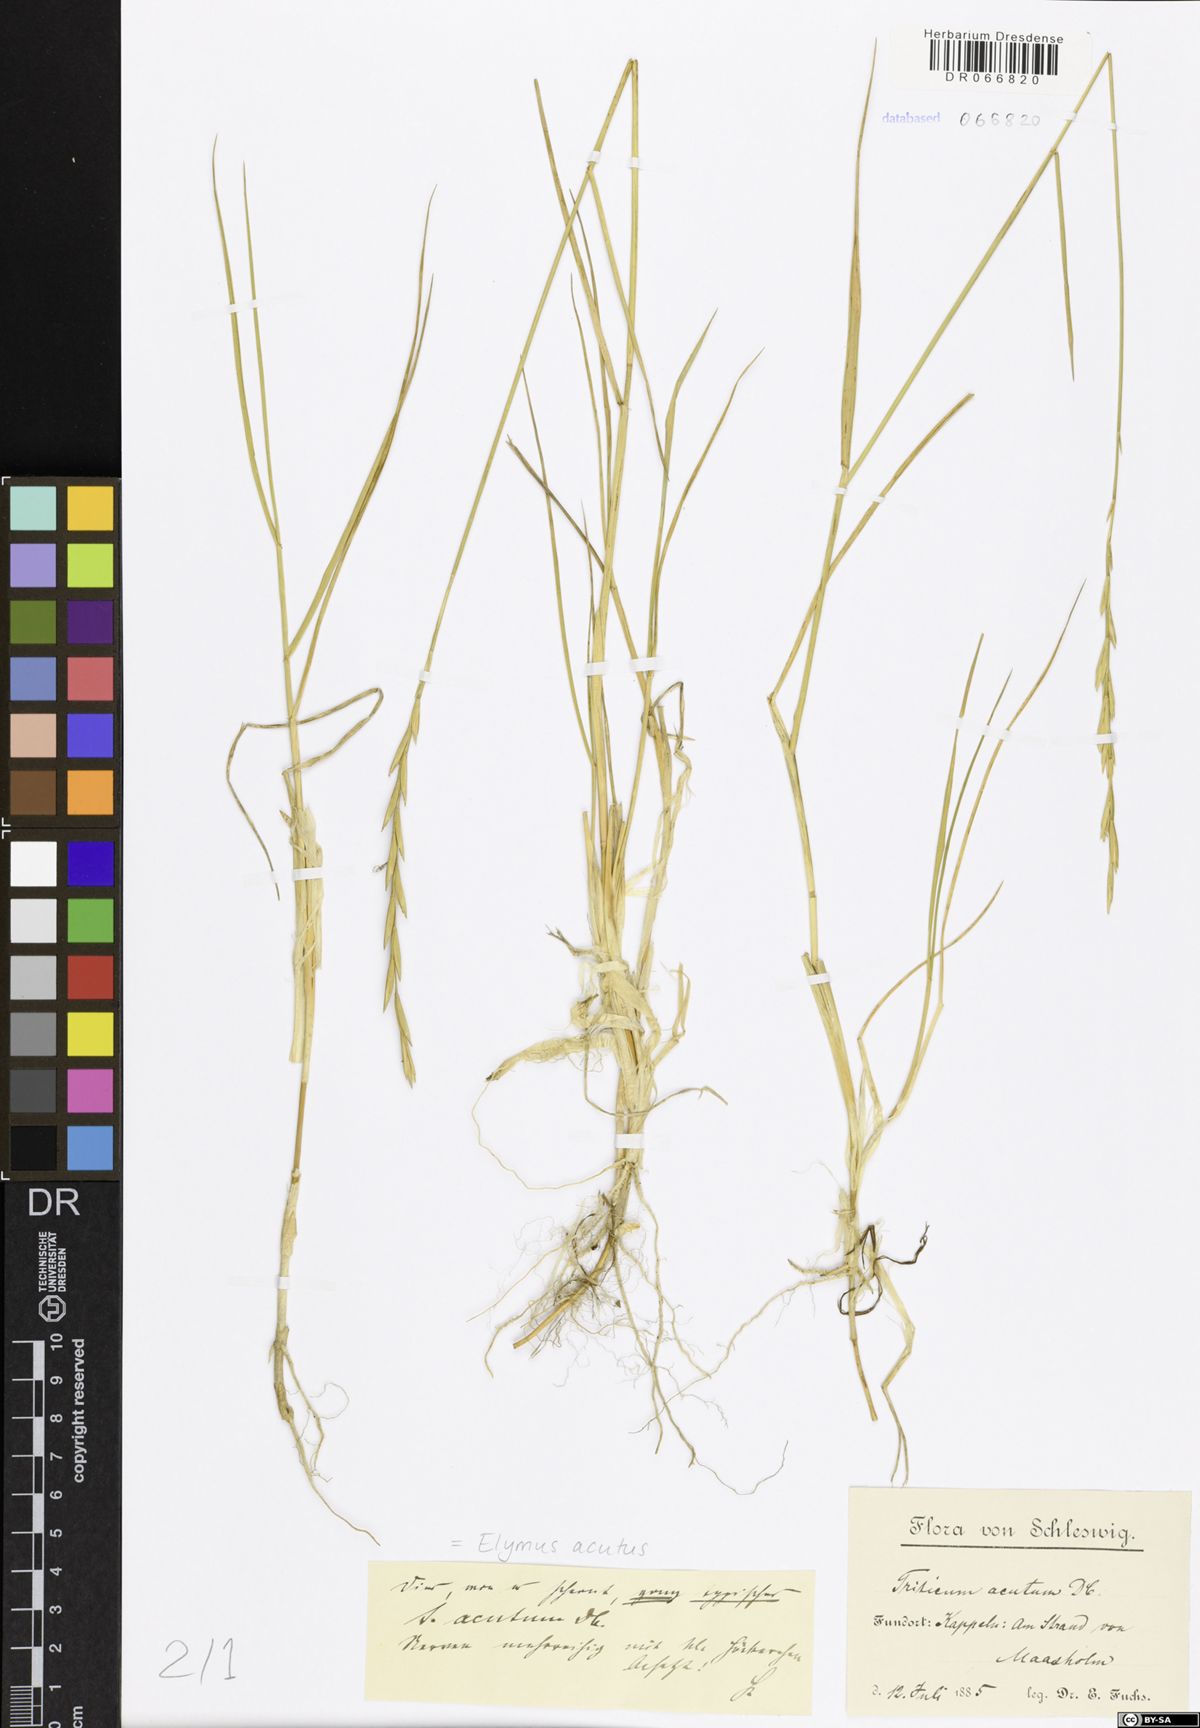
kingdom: Plantae
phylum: Tracheophyta
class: Liliopsida
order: Poales
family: Poaceae
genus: Thinopyrum
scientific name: Thinopyrum acutum
